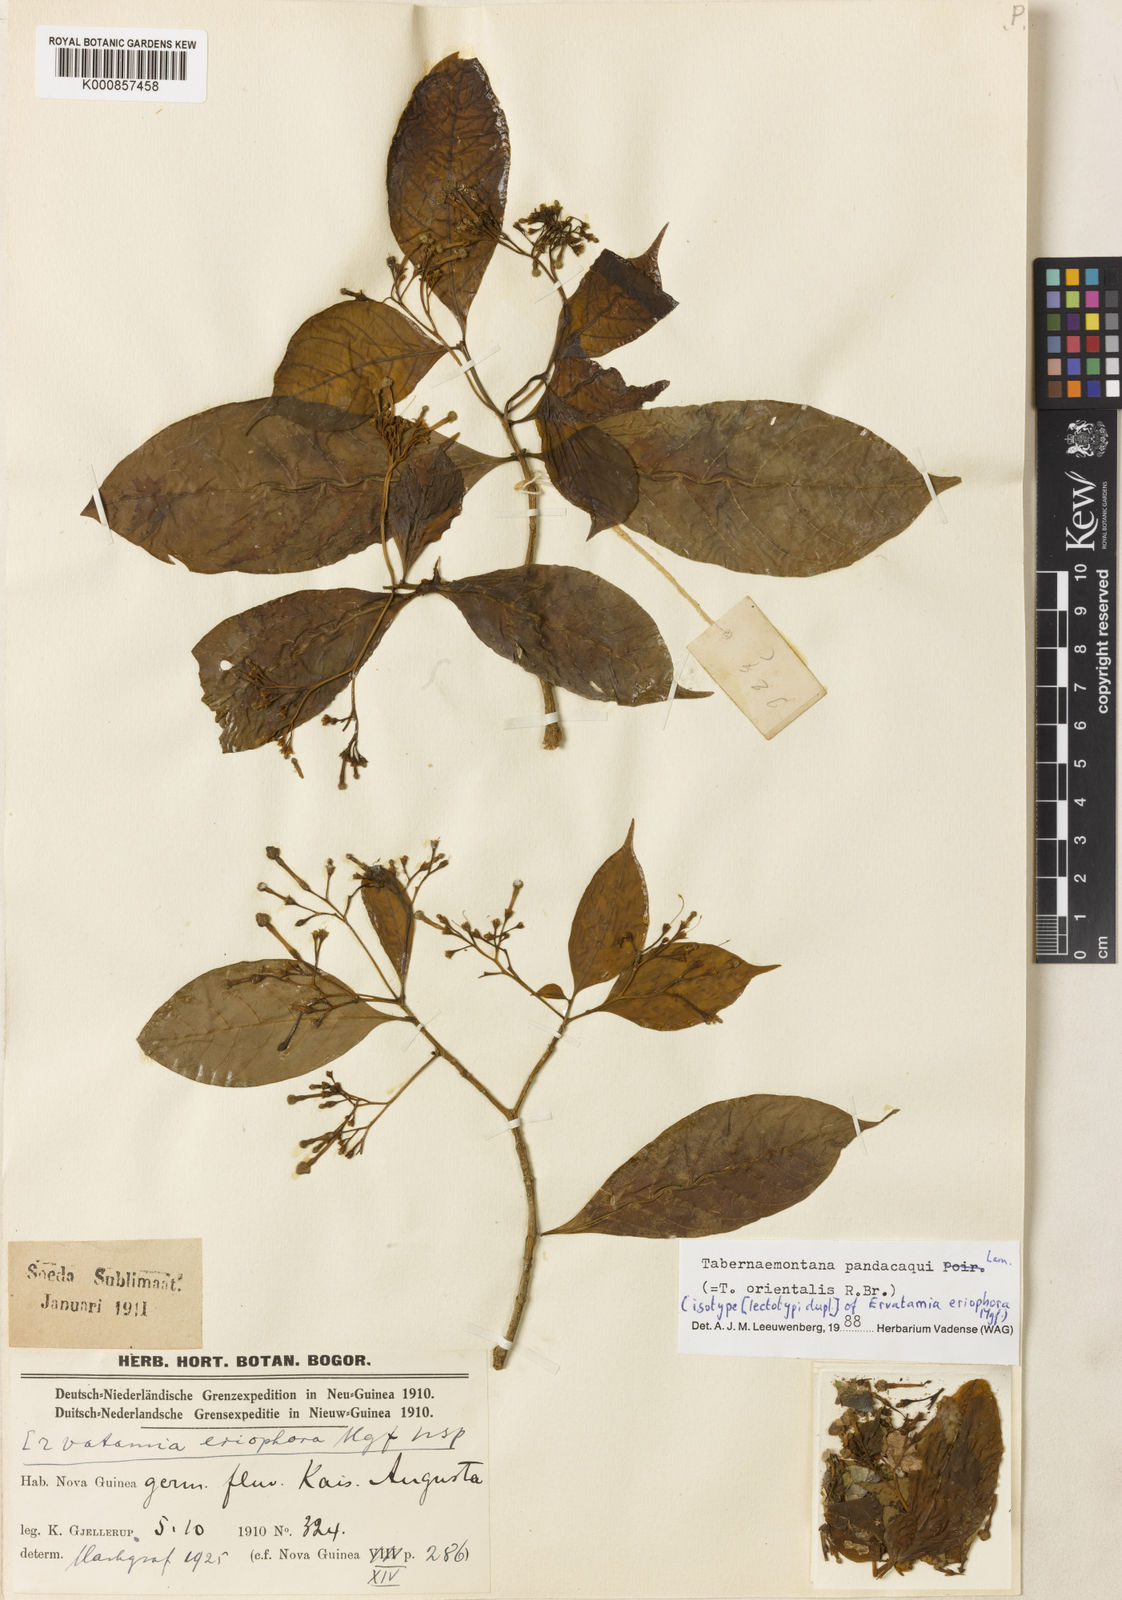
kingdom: Plantae
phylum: Tracheophyta
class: Magnoliopsida
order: Gentianales
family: Apocynaceae
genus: Tabernaemontana
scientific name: Tabernaemontana
